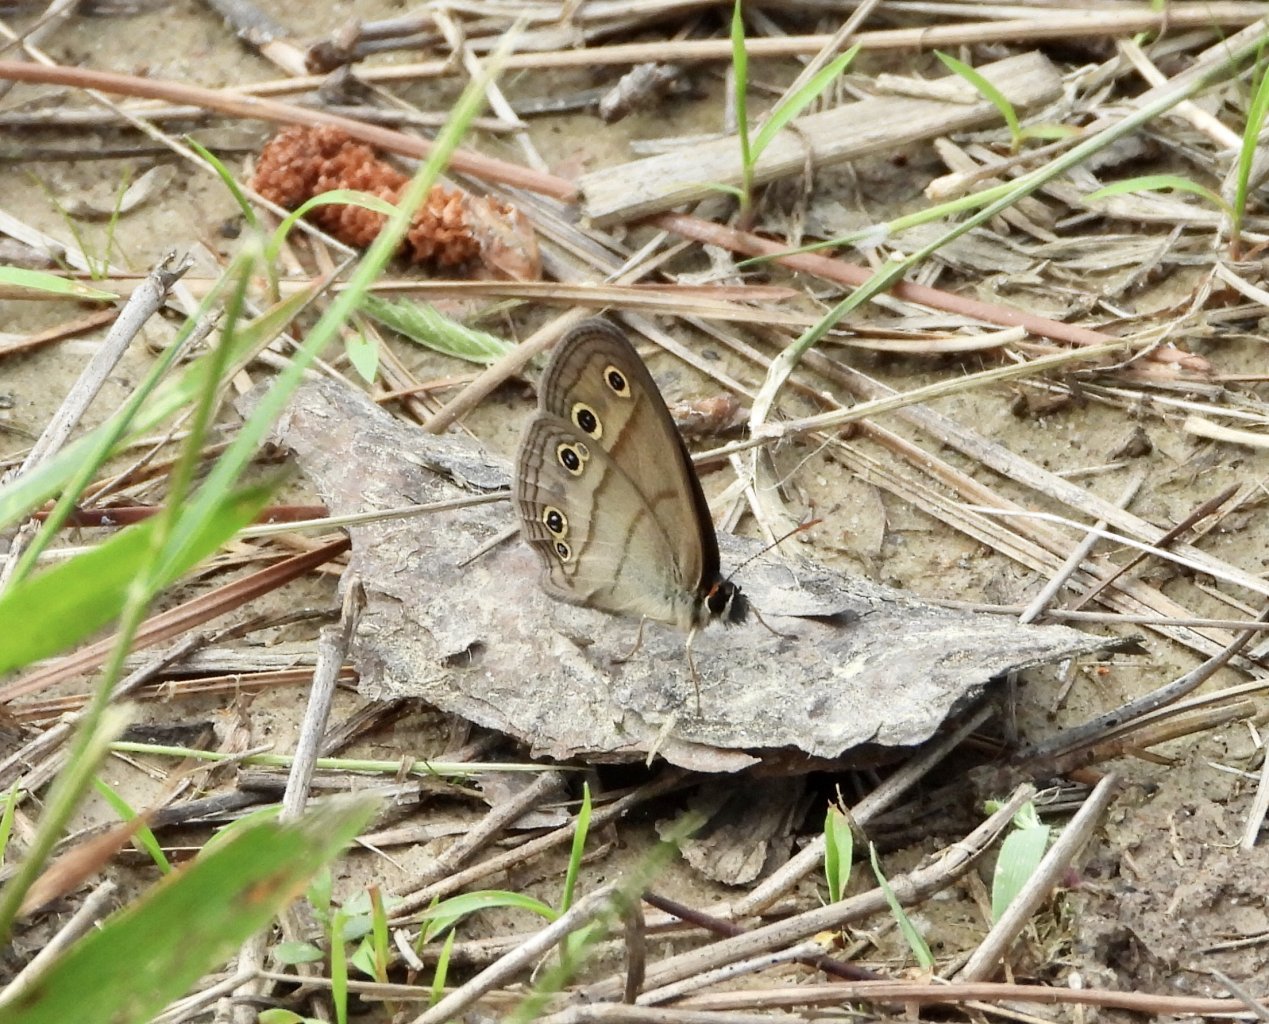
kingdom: Animalia
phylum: Arthropoda
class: Insecta
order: Lepidoptera
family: Nymphalidae
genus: Euptychia
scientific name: Euptychia cymela
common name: Little Wood Satyr
